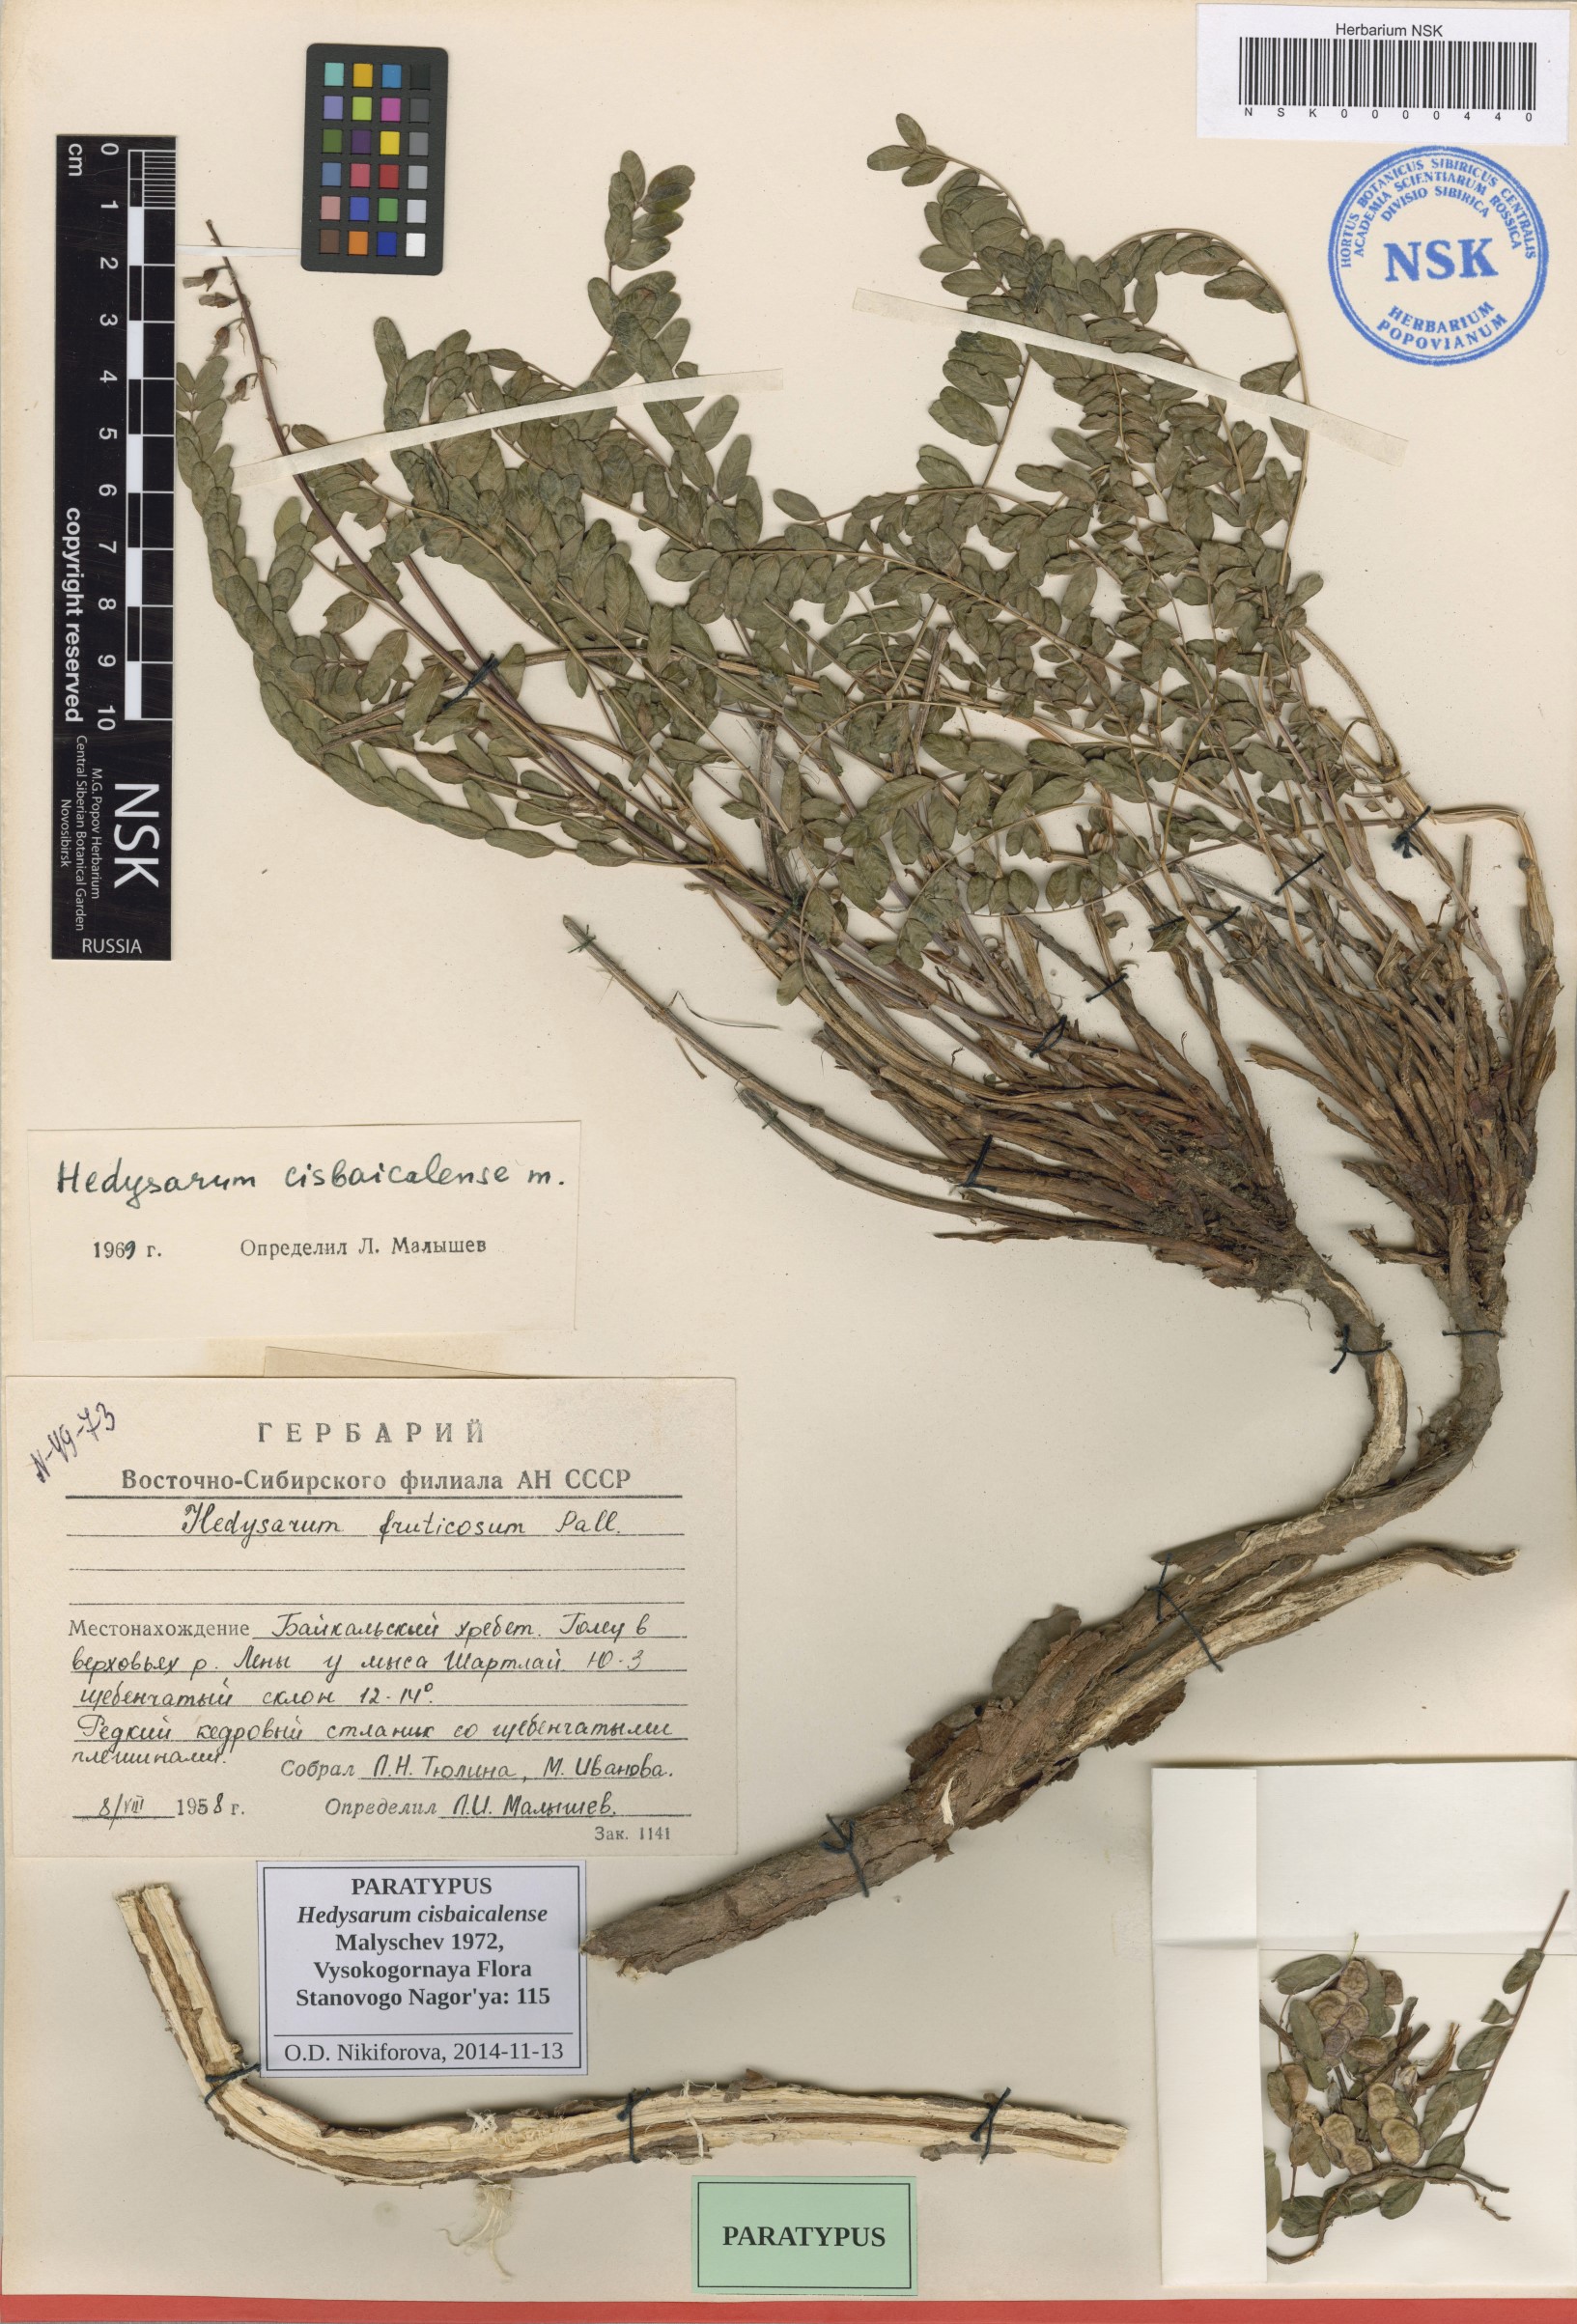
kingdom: Plantae
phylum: Tracheophyta
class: Magnoliopsida
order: Fabales
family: Fabaceae
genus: Hedysarum
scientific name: Hedysarum cisbaicalense
